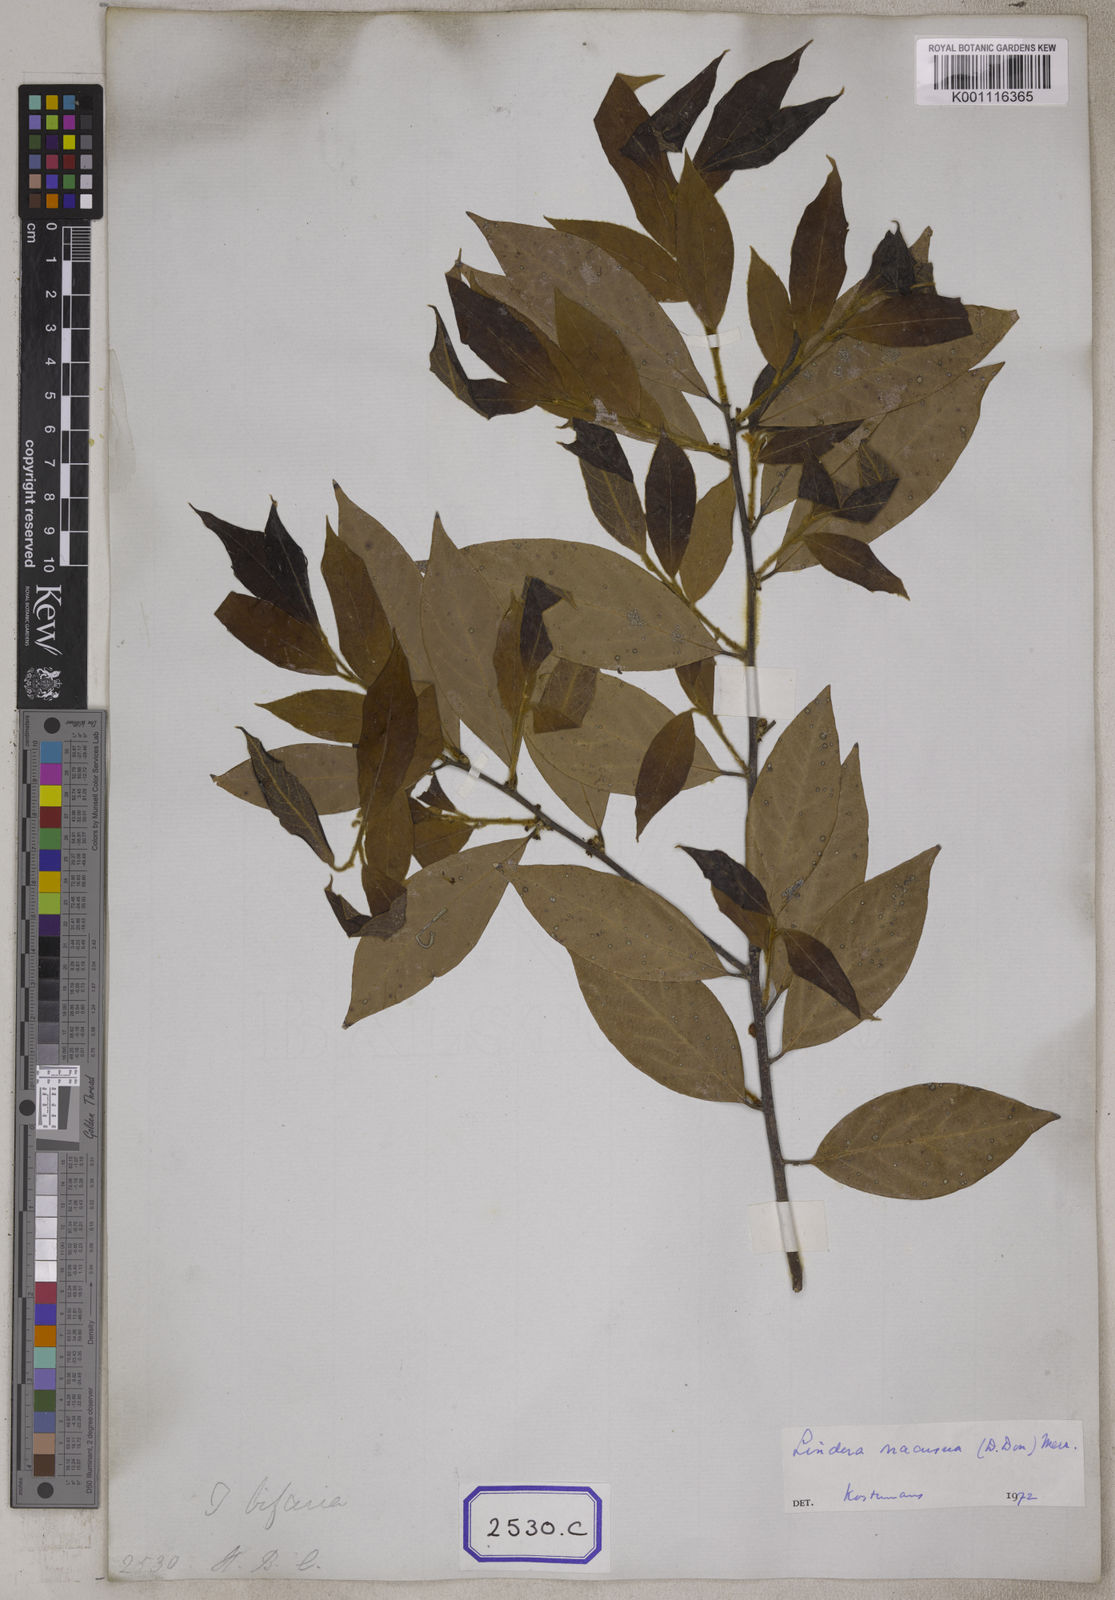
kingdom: Plantae
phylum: Tracheophyta
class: Magnoliopsida
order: Laurales
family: Lauraceae
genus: Lindera
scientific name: Lindera nacusua
